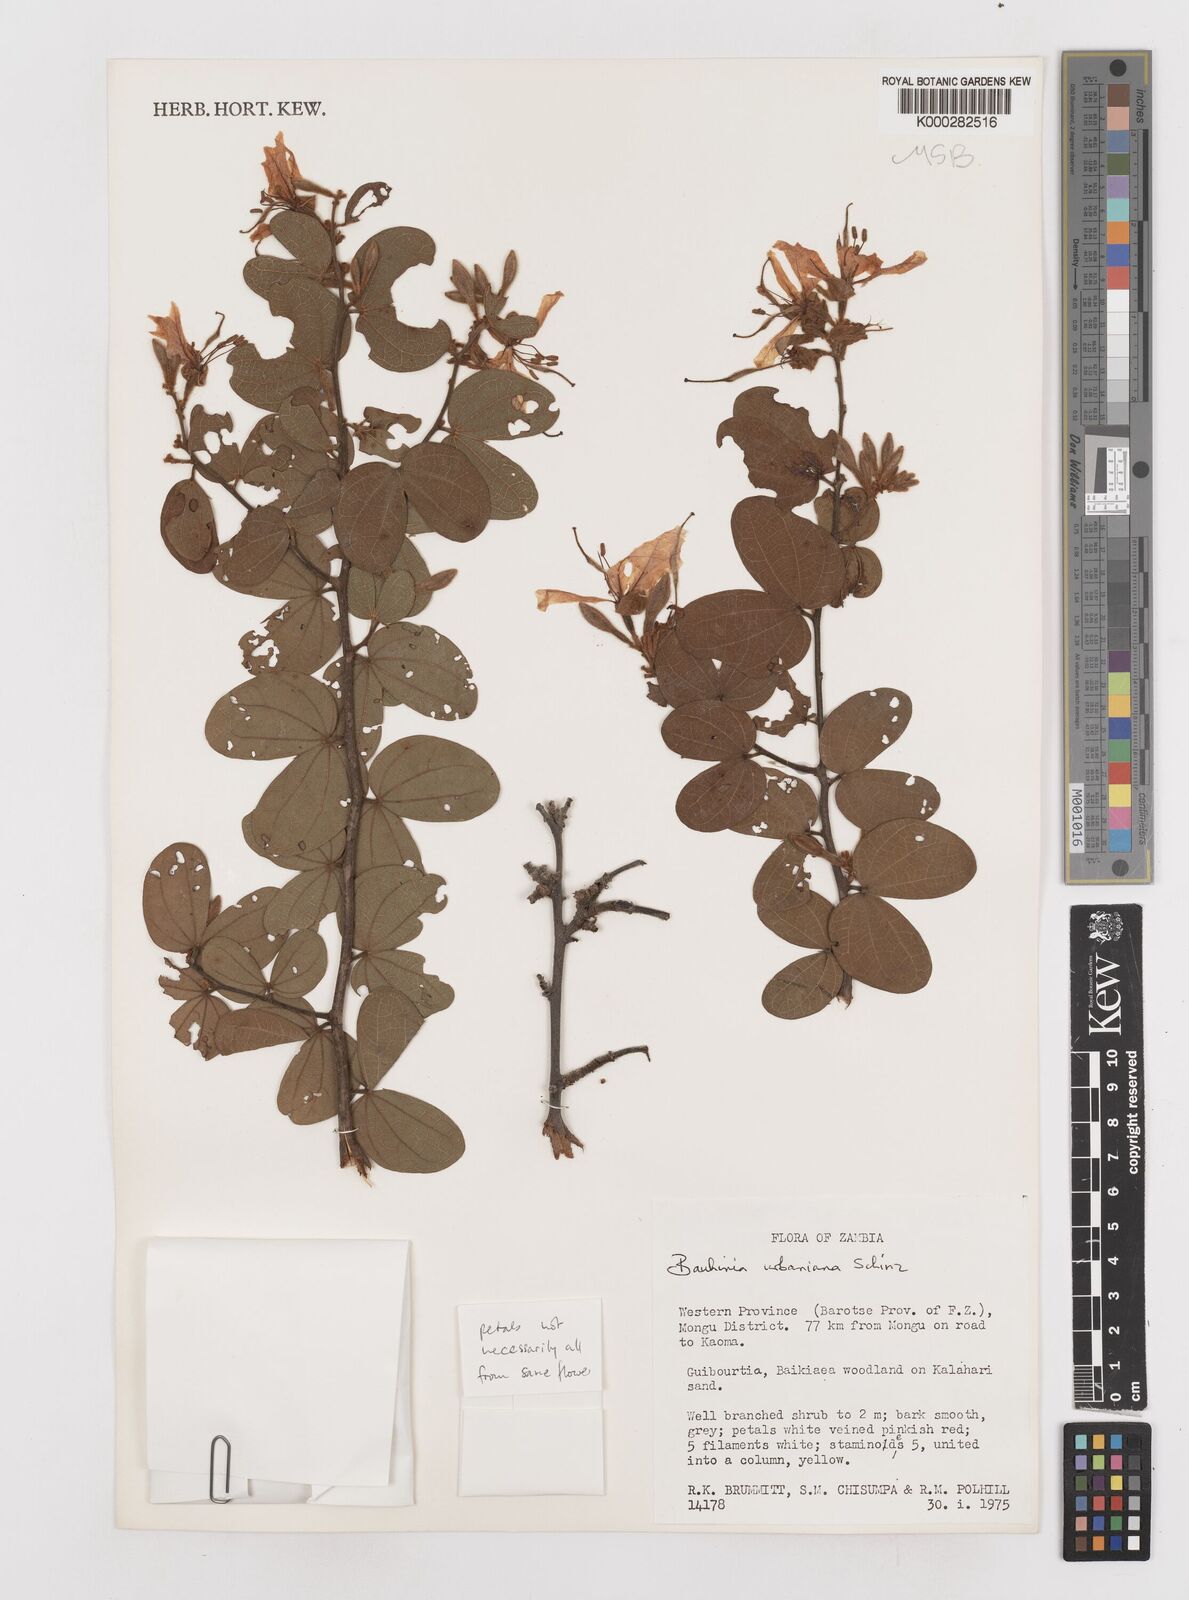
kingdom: Plantae
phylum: Tracheophyta
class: Magnoliopsida
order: Fabales
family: Fabaceae
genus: Bauhinia
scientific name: Bauhinia urbaniana
